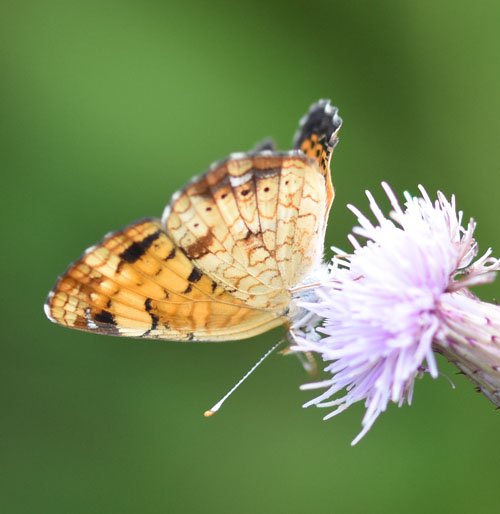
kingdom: Animalia
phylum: Arthropoda
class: Insecta
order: Lepidoptera
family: Nymphalidae
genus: Phyciodes
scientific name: Phyciodes tharos
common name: Northern Crescent
